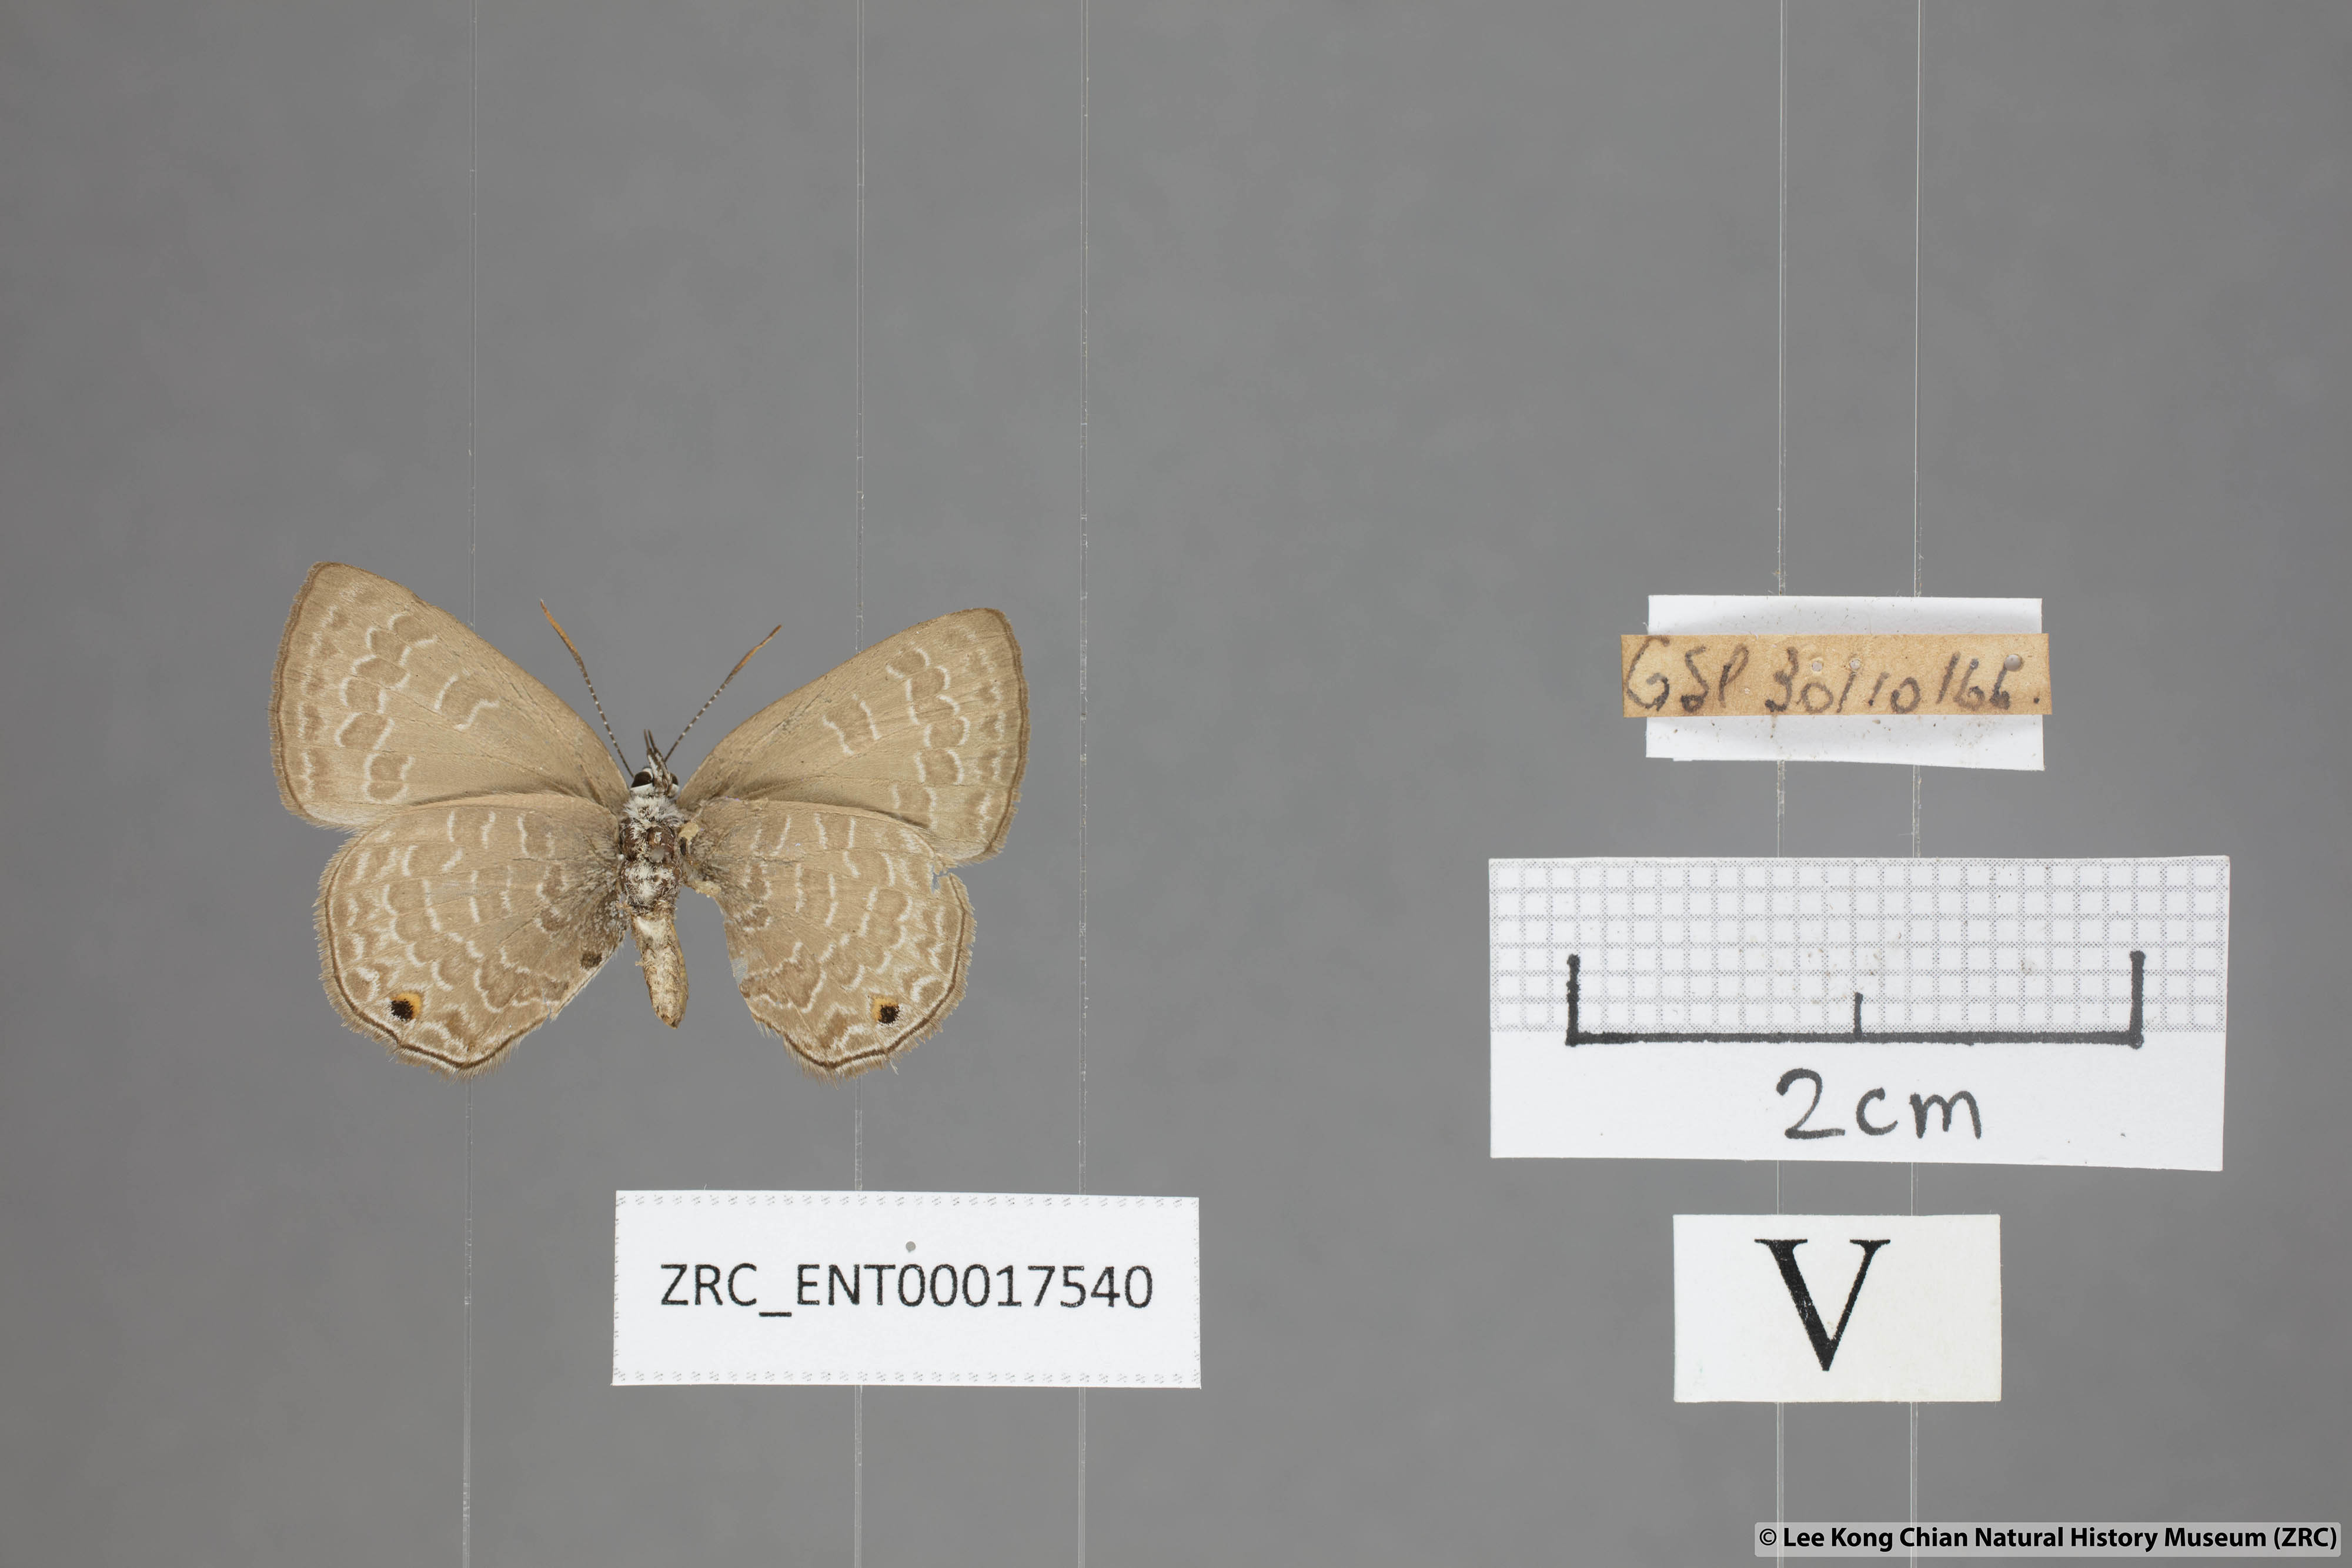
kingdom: Animalia
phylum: Arthropoda
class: Insecta
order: Lepidoptera
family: Lycaenidae
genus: Anthene
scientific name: Anthene emolus
